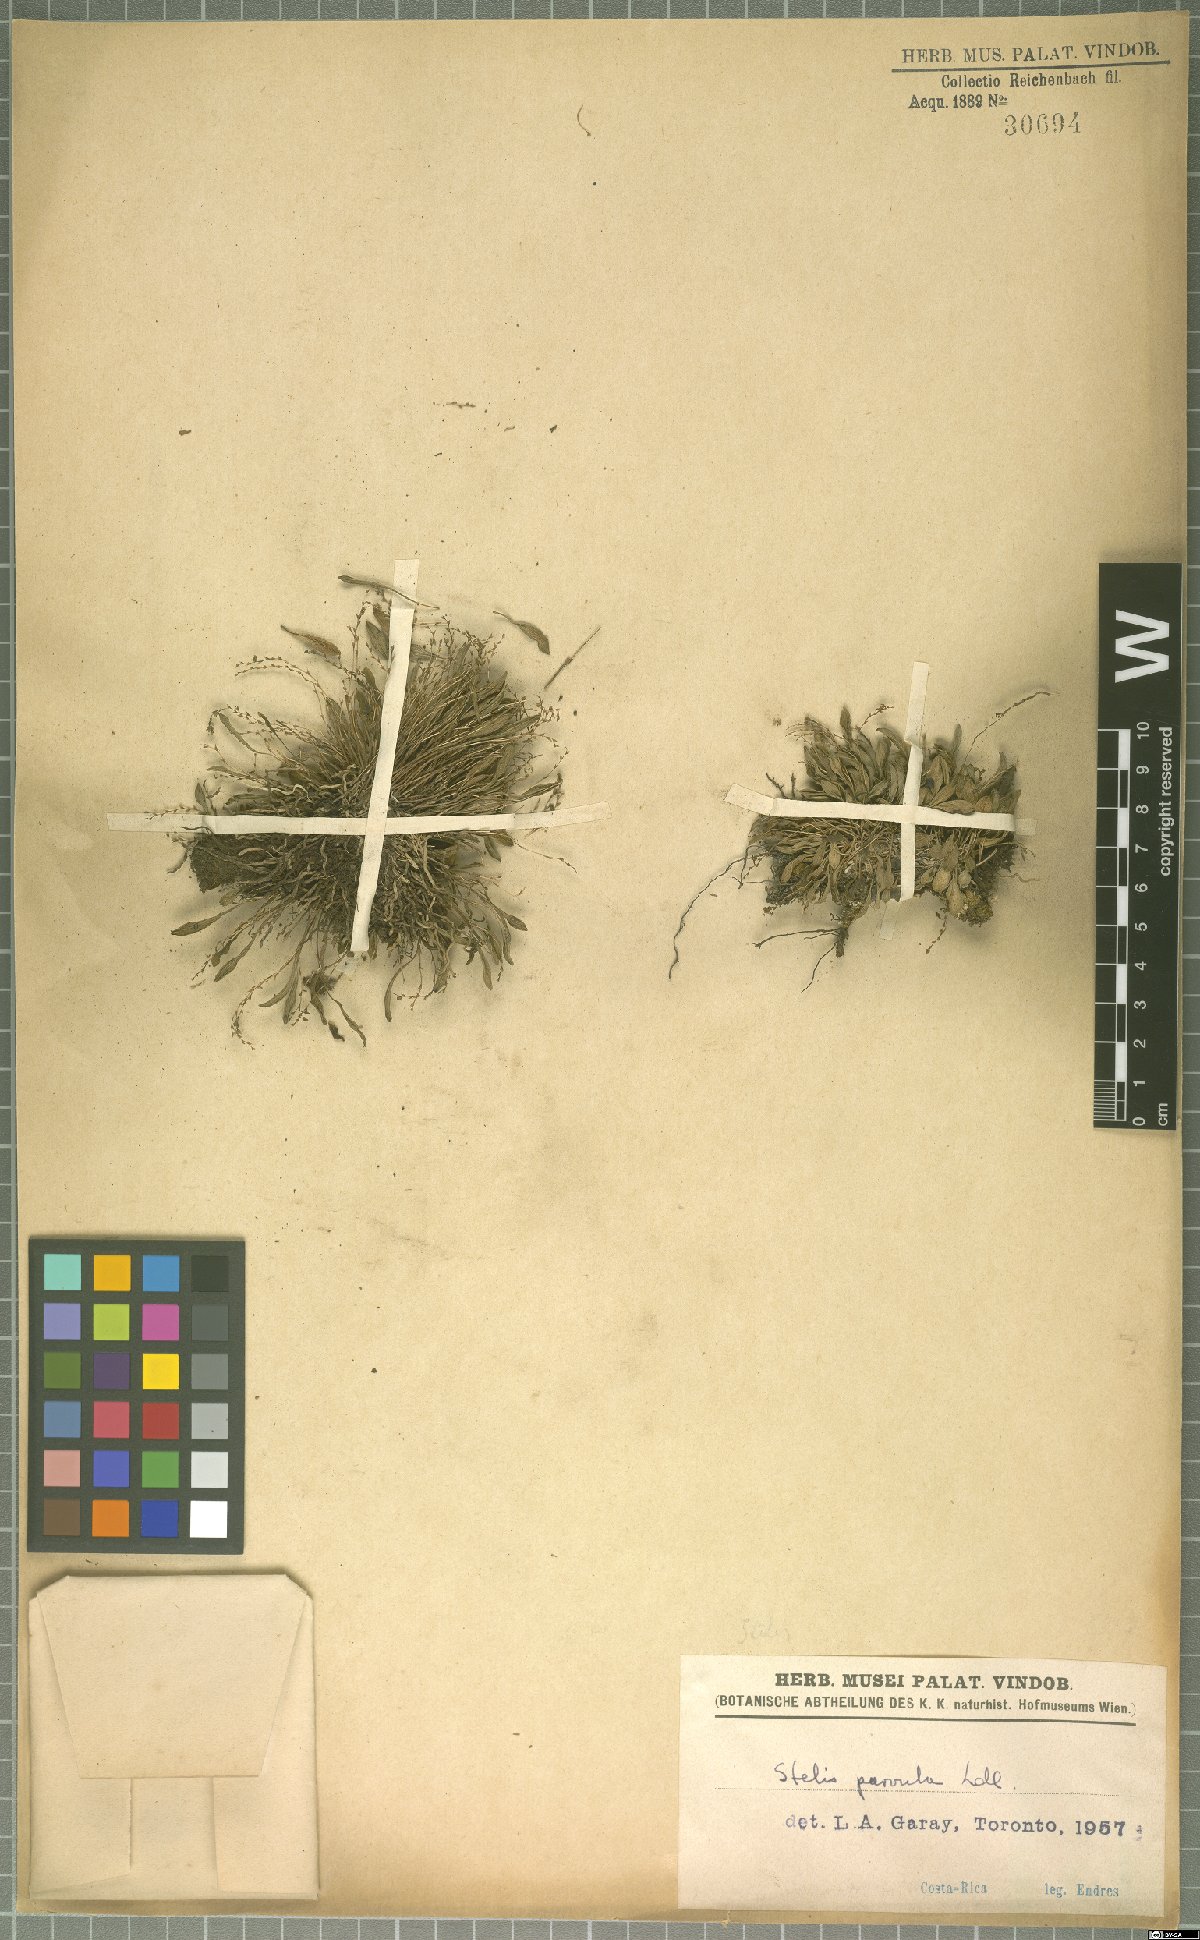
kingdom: Plantae
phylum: Tracheophyta
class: Liliopsida
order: Asparagales
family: Orchidaceae
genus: Stelis
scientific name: Stelis parvula
